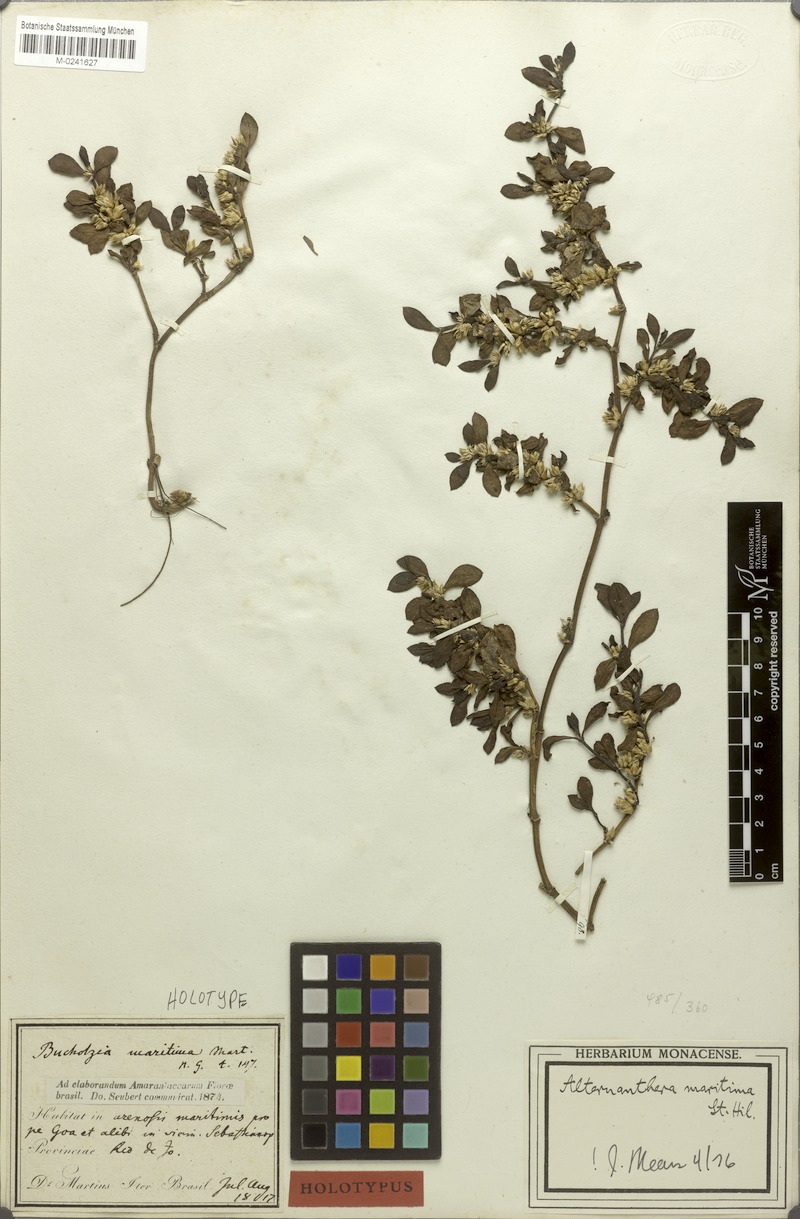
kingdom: Plantae
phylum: Tracheophyta
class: Magnoliopsida
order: Caryophyllales
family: Amaranthaceae
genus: Alternanthera
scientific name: Alternanthera littoralis
